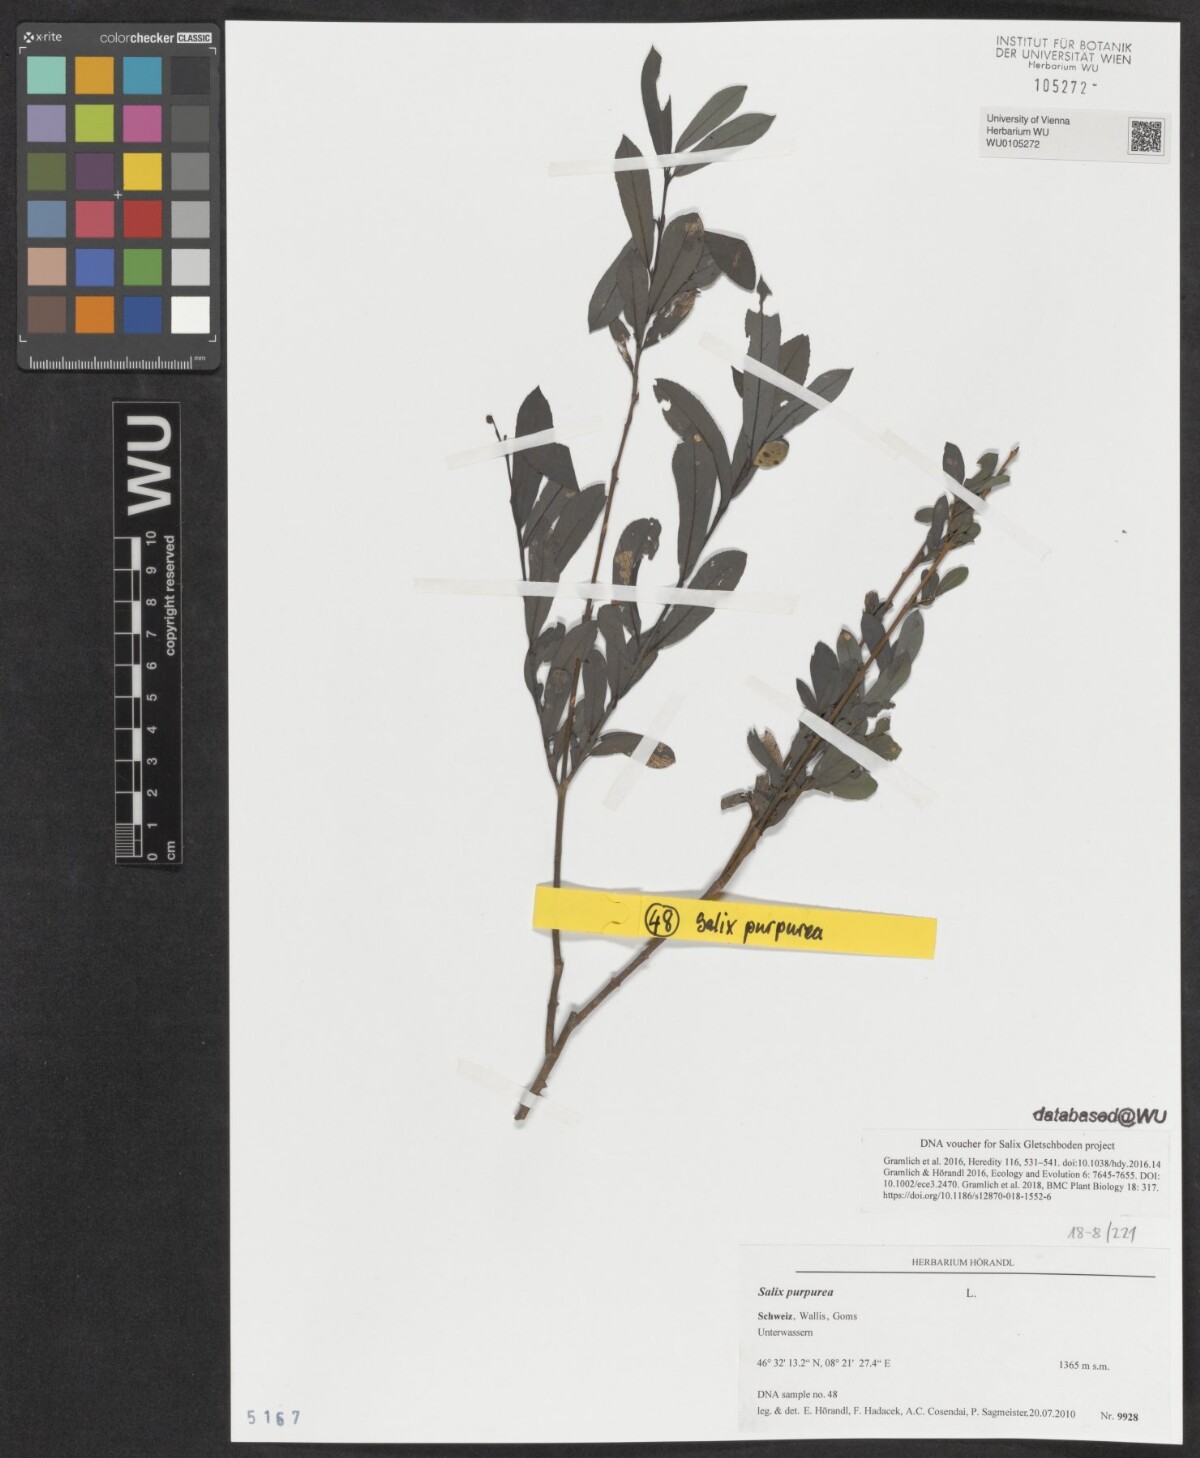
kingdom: Plantae
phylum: Tracheophyta
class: Magnoliopsida
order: Malpighiales
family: Salicaceae
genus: Salix
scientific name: Salix purpurea
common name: Purple willow
